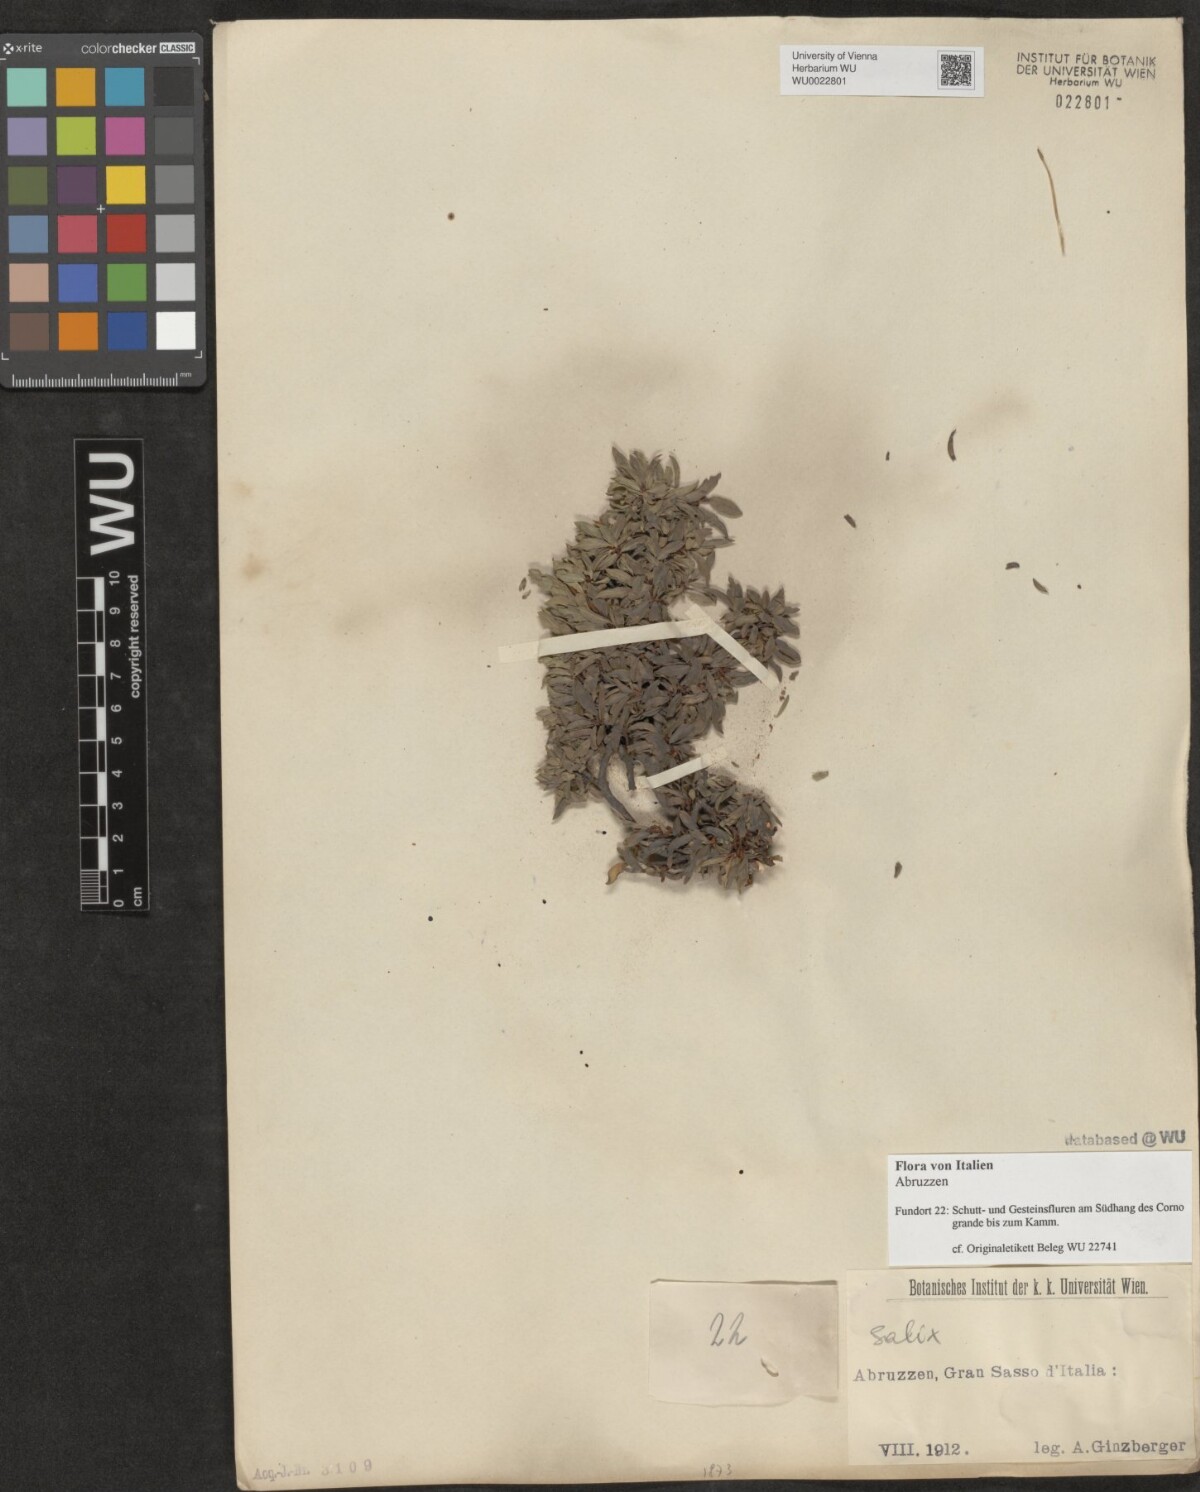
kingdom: Plantae
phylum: Tracheophyta
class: Magnoliopsida
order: Malpighiales
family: Salicaceae
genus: Salix
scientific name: Salix
